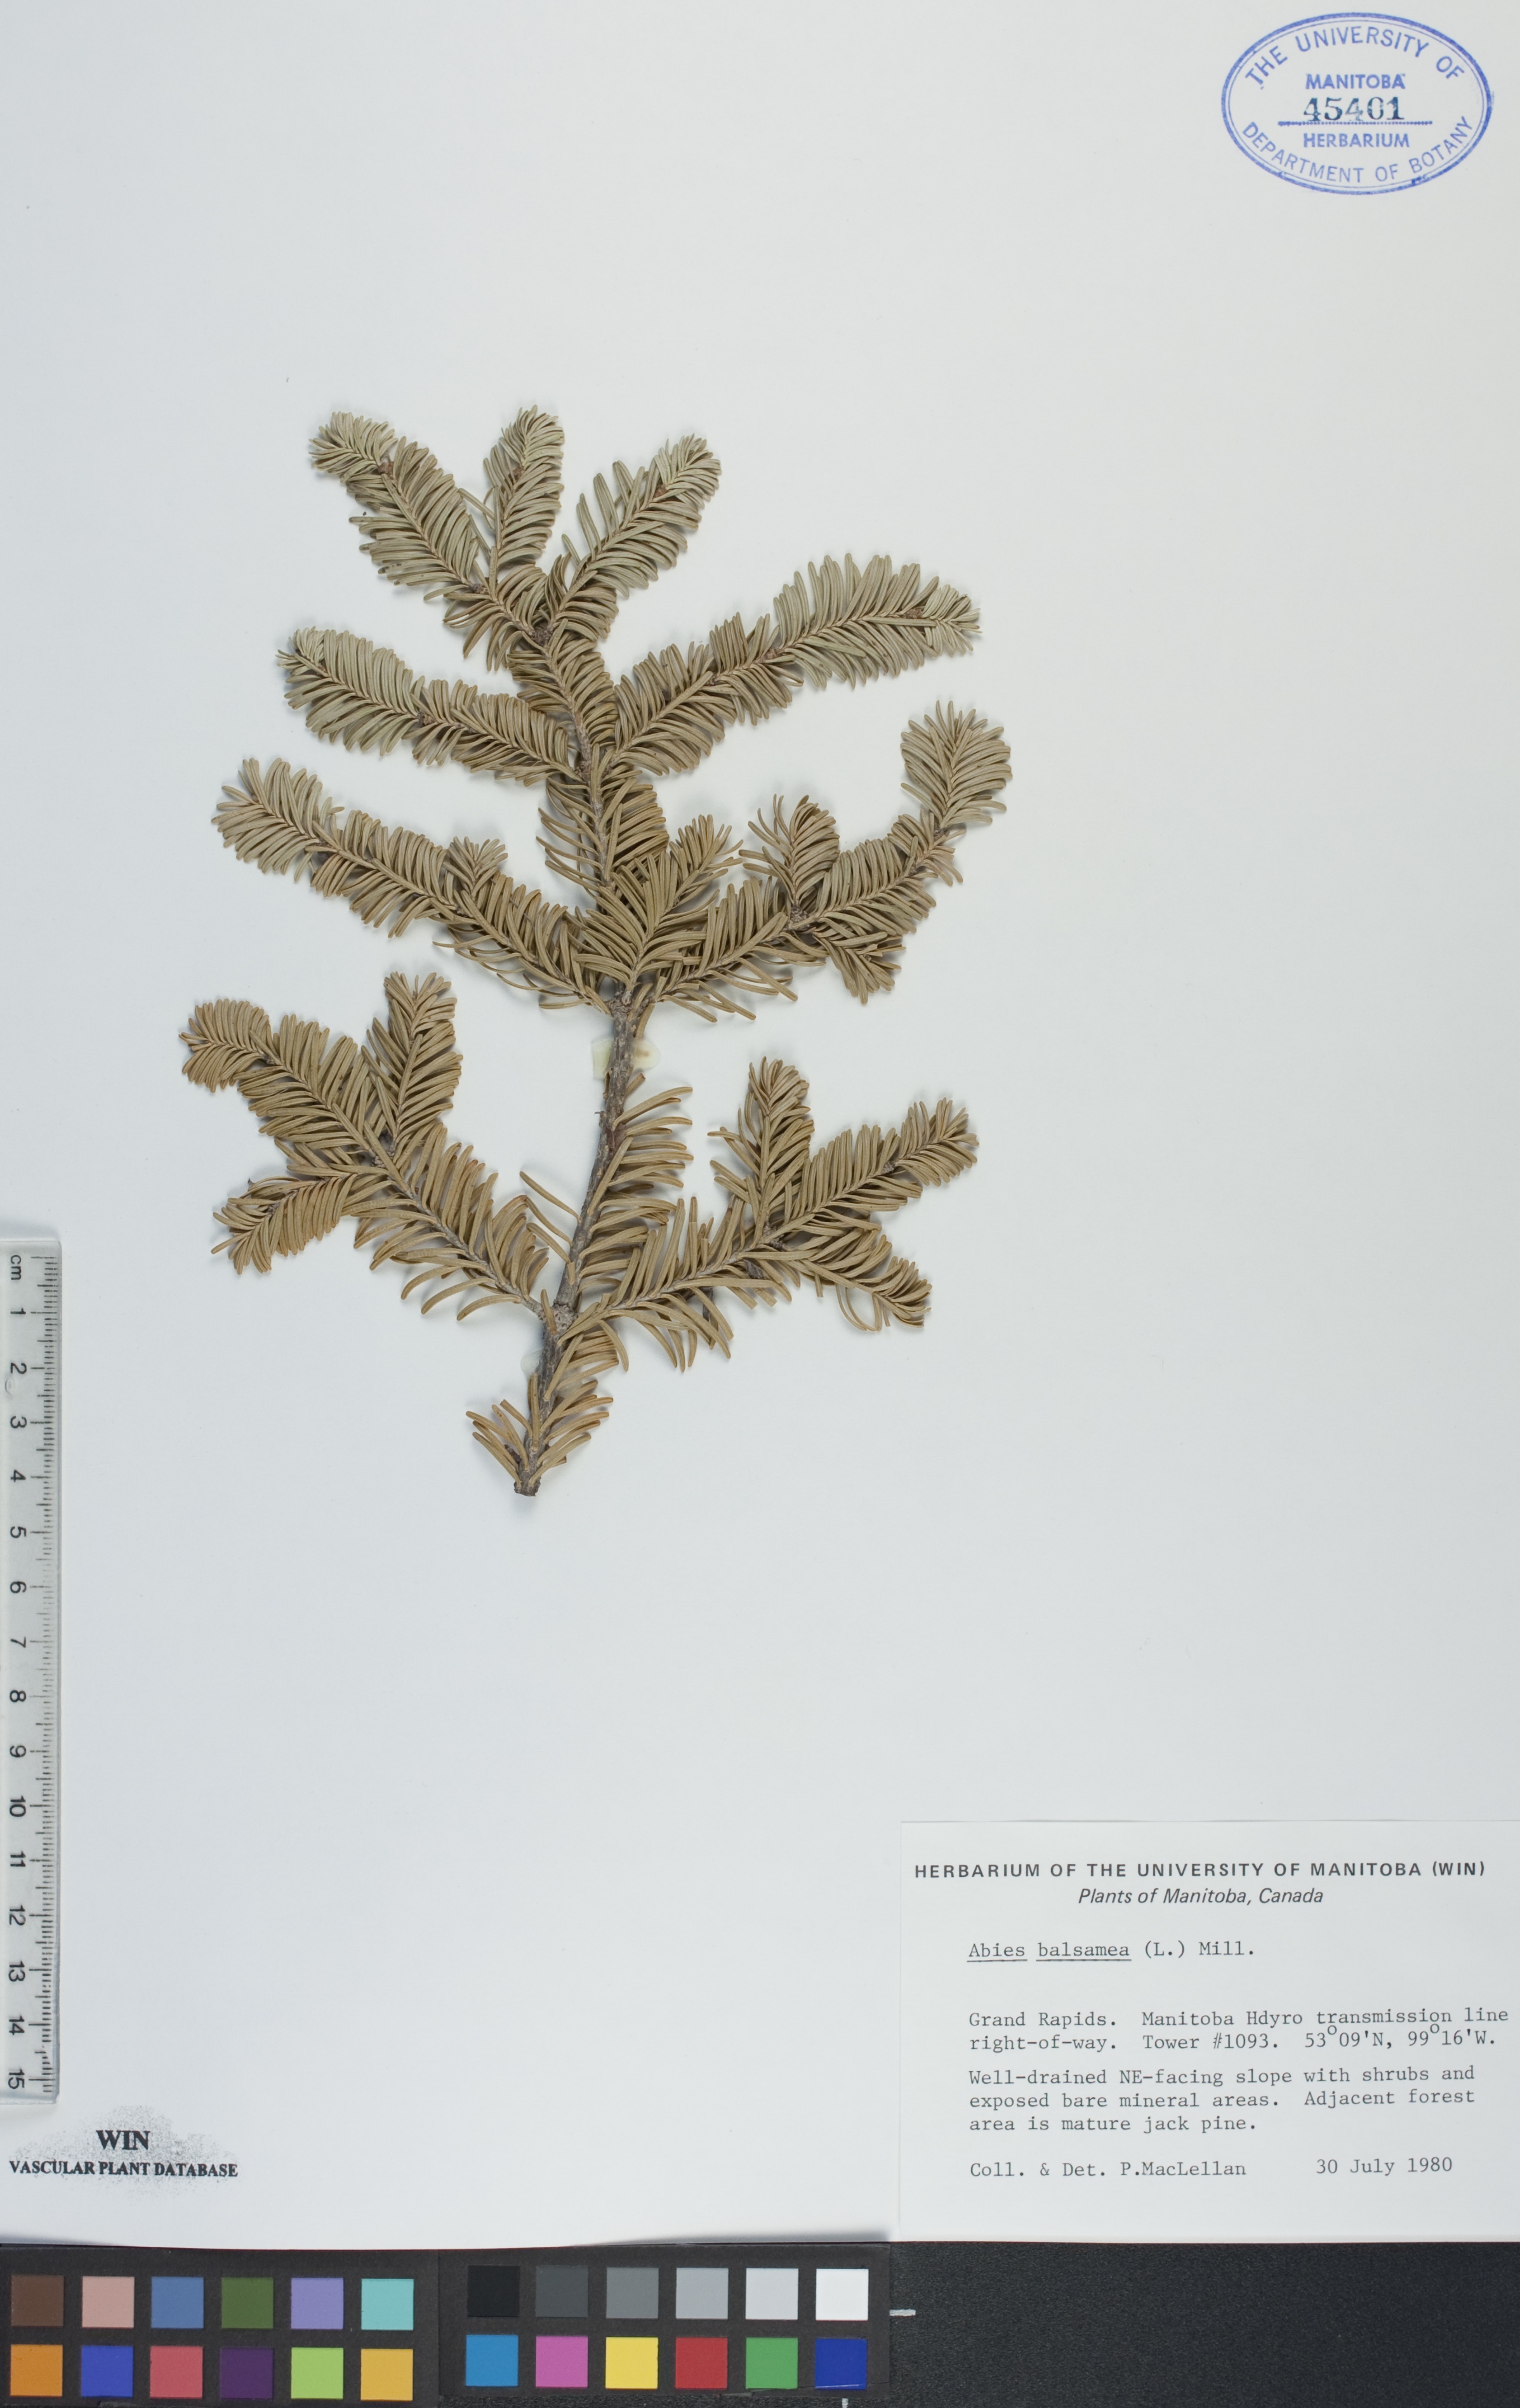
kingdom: Plantae
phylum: Tracheophyta
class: Pinopsida
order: Pinales
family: Pinaceae
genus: Abies
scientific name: Abies balsamea
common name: Balsam fir
